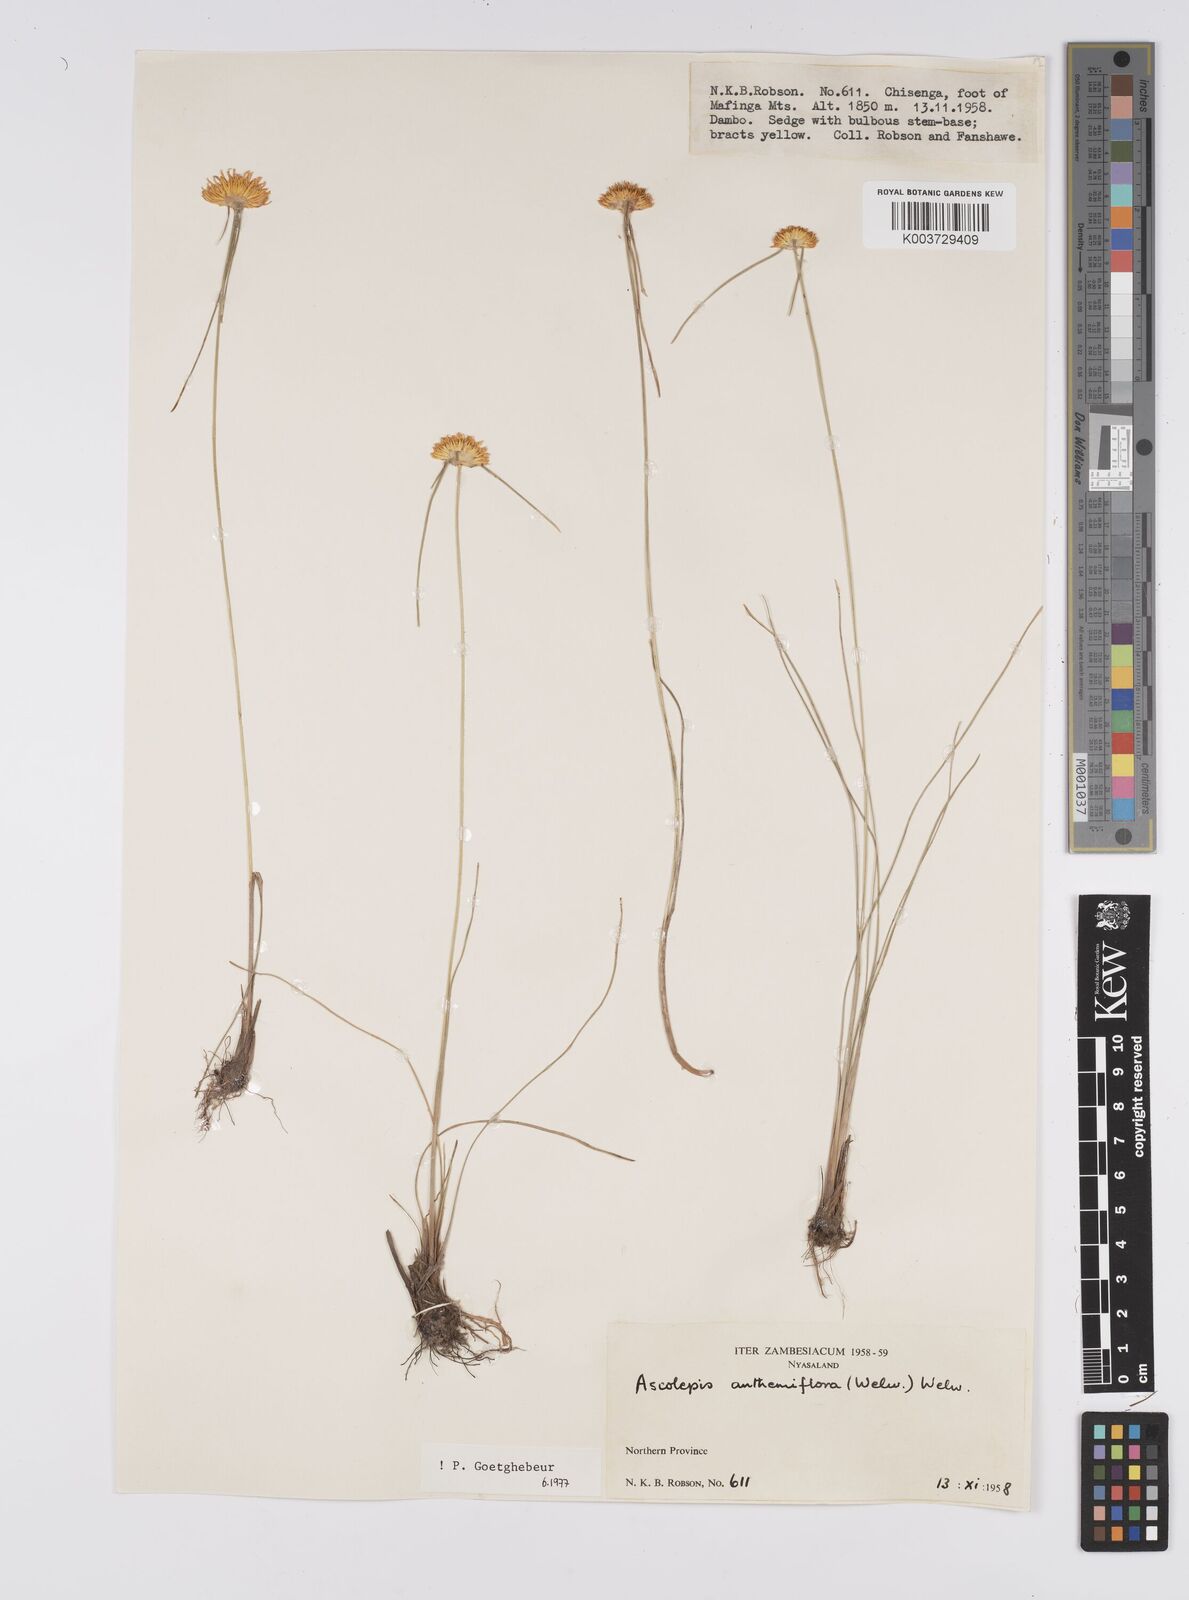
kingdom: Plantae
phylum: Tracheophyta
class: Liliopsida
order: Poales
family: Cyperaceae
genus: Cyperus
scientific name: Cyperus
